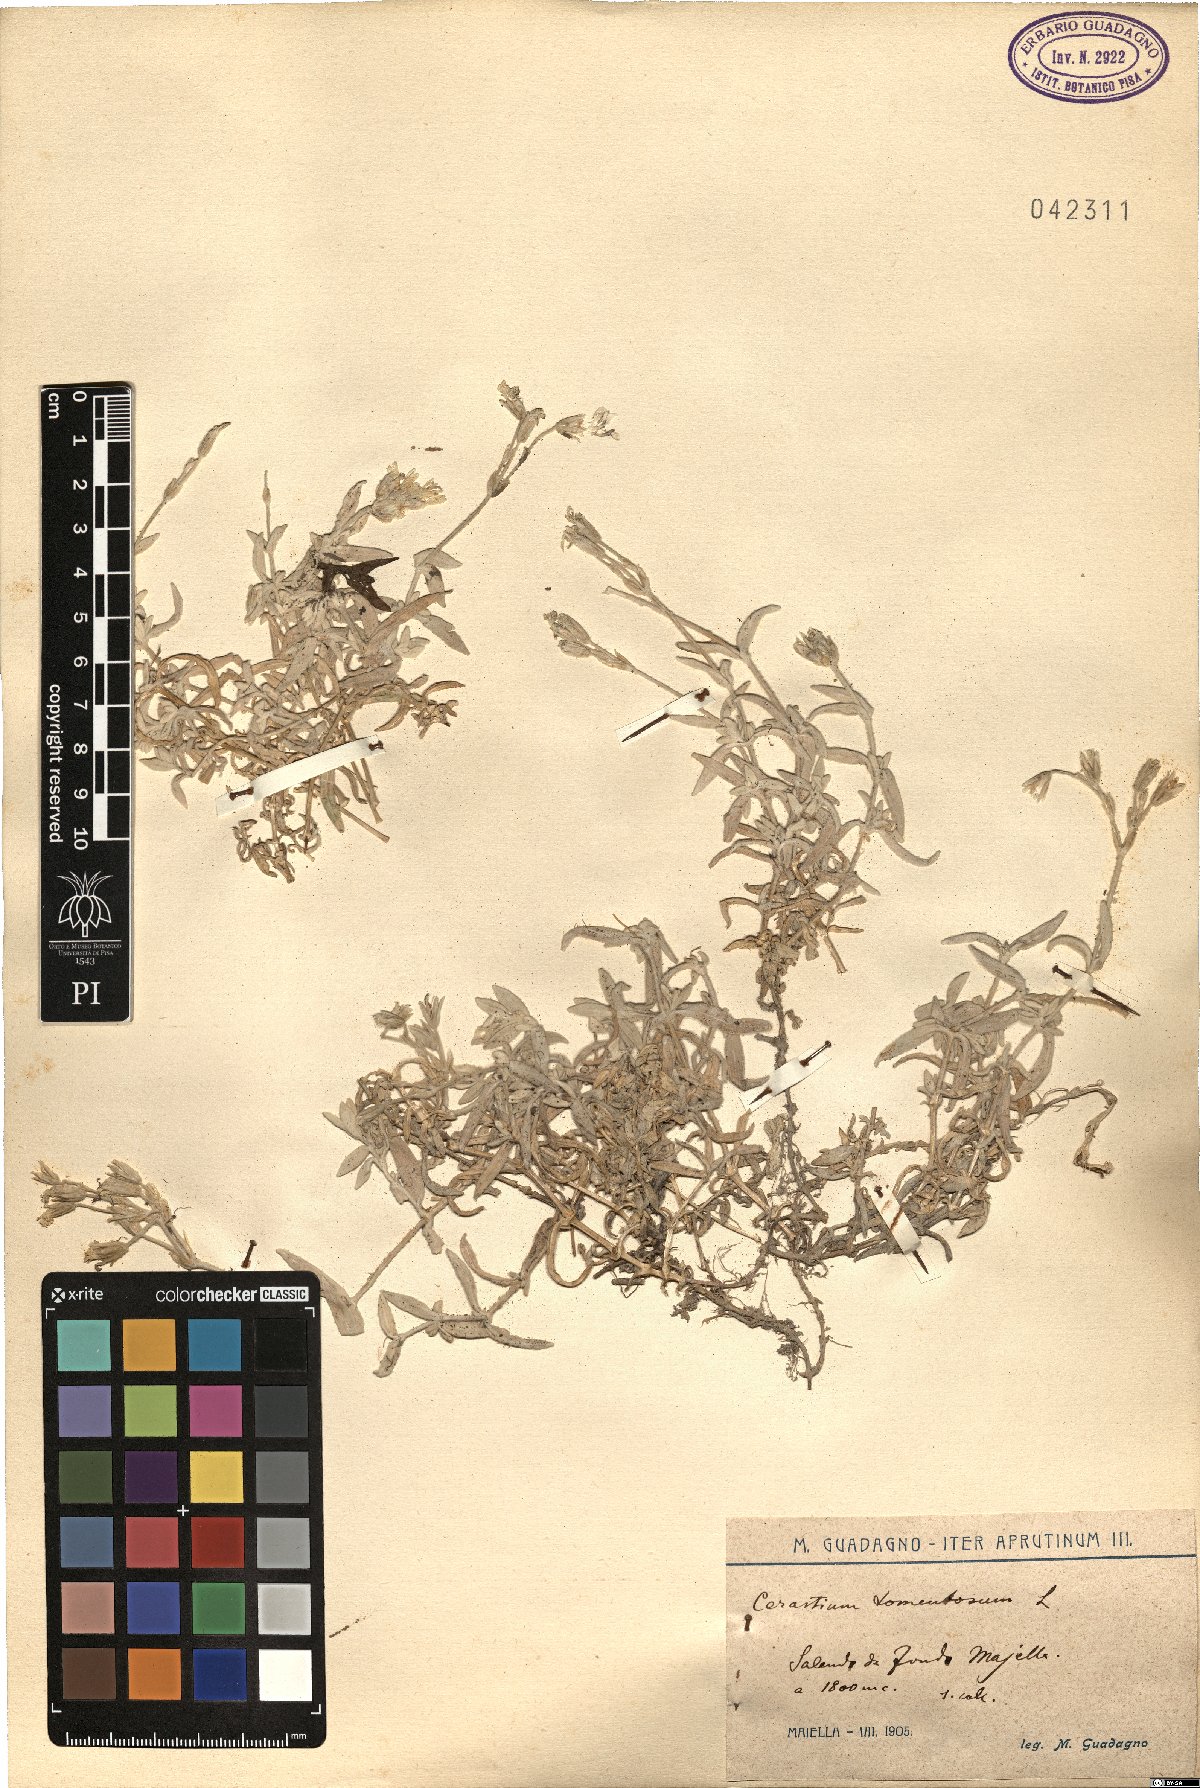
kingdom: Plantae
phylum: Tracheophyta
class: Magnoliopsida
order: Caryophyllales
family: Caryophyllaceae
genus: Cerastium
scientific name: Cerastium tomentosum
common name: Snow-in-summer
